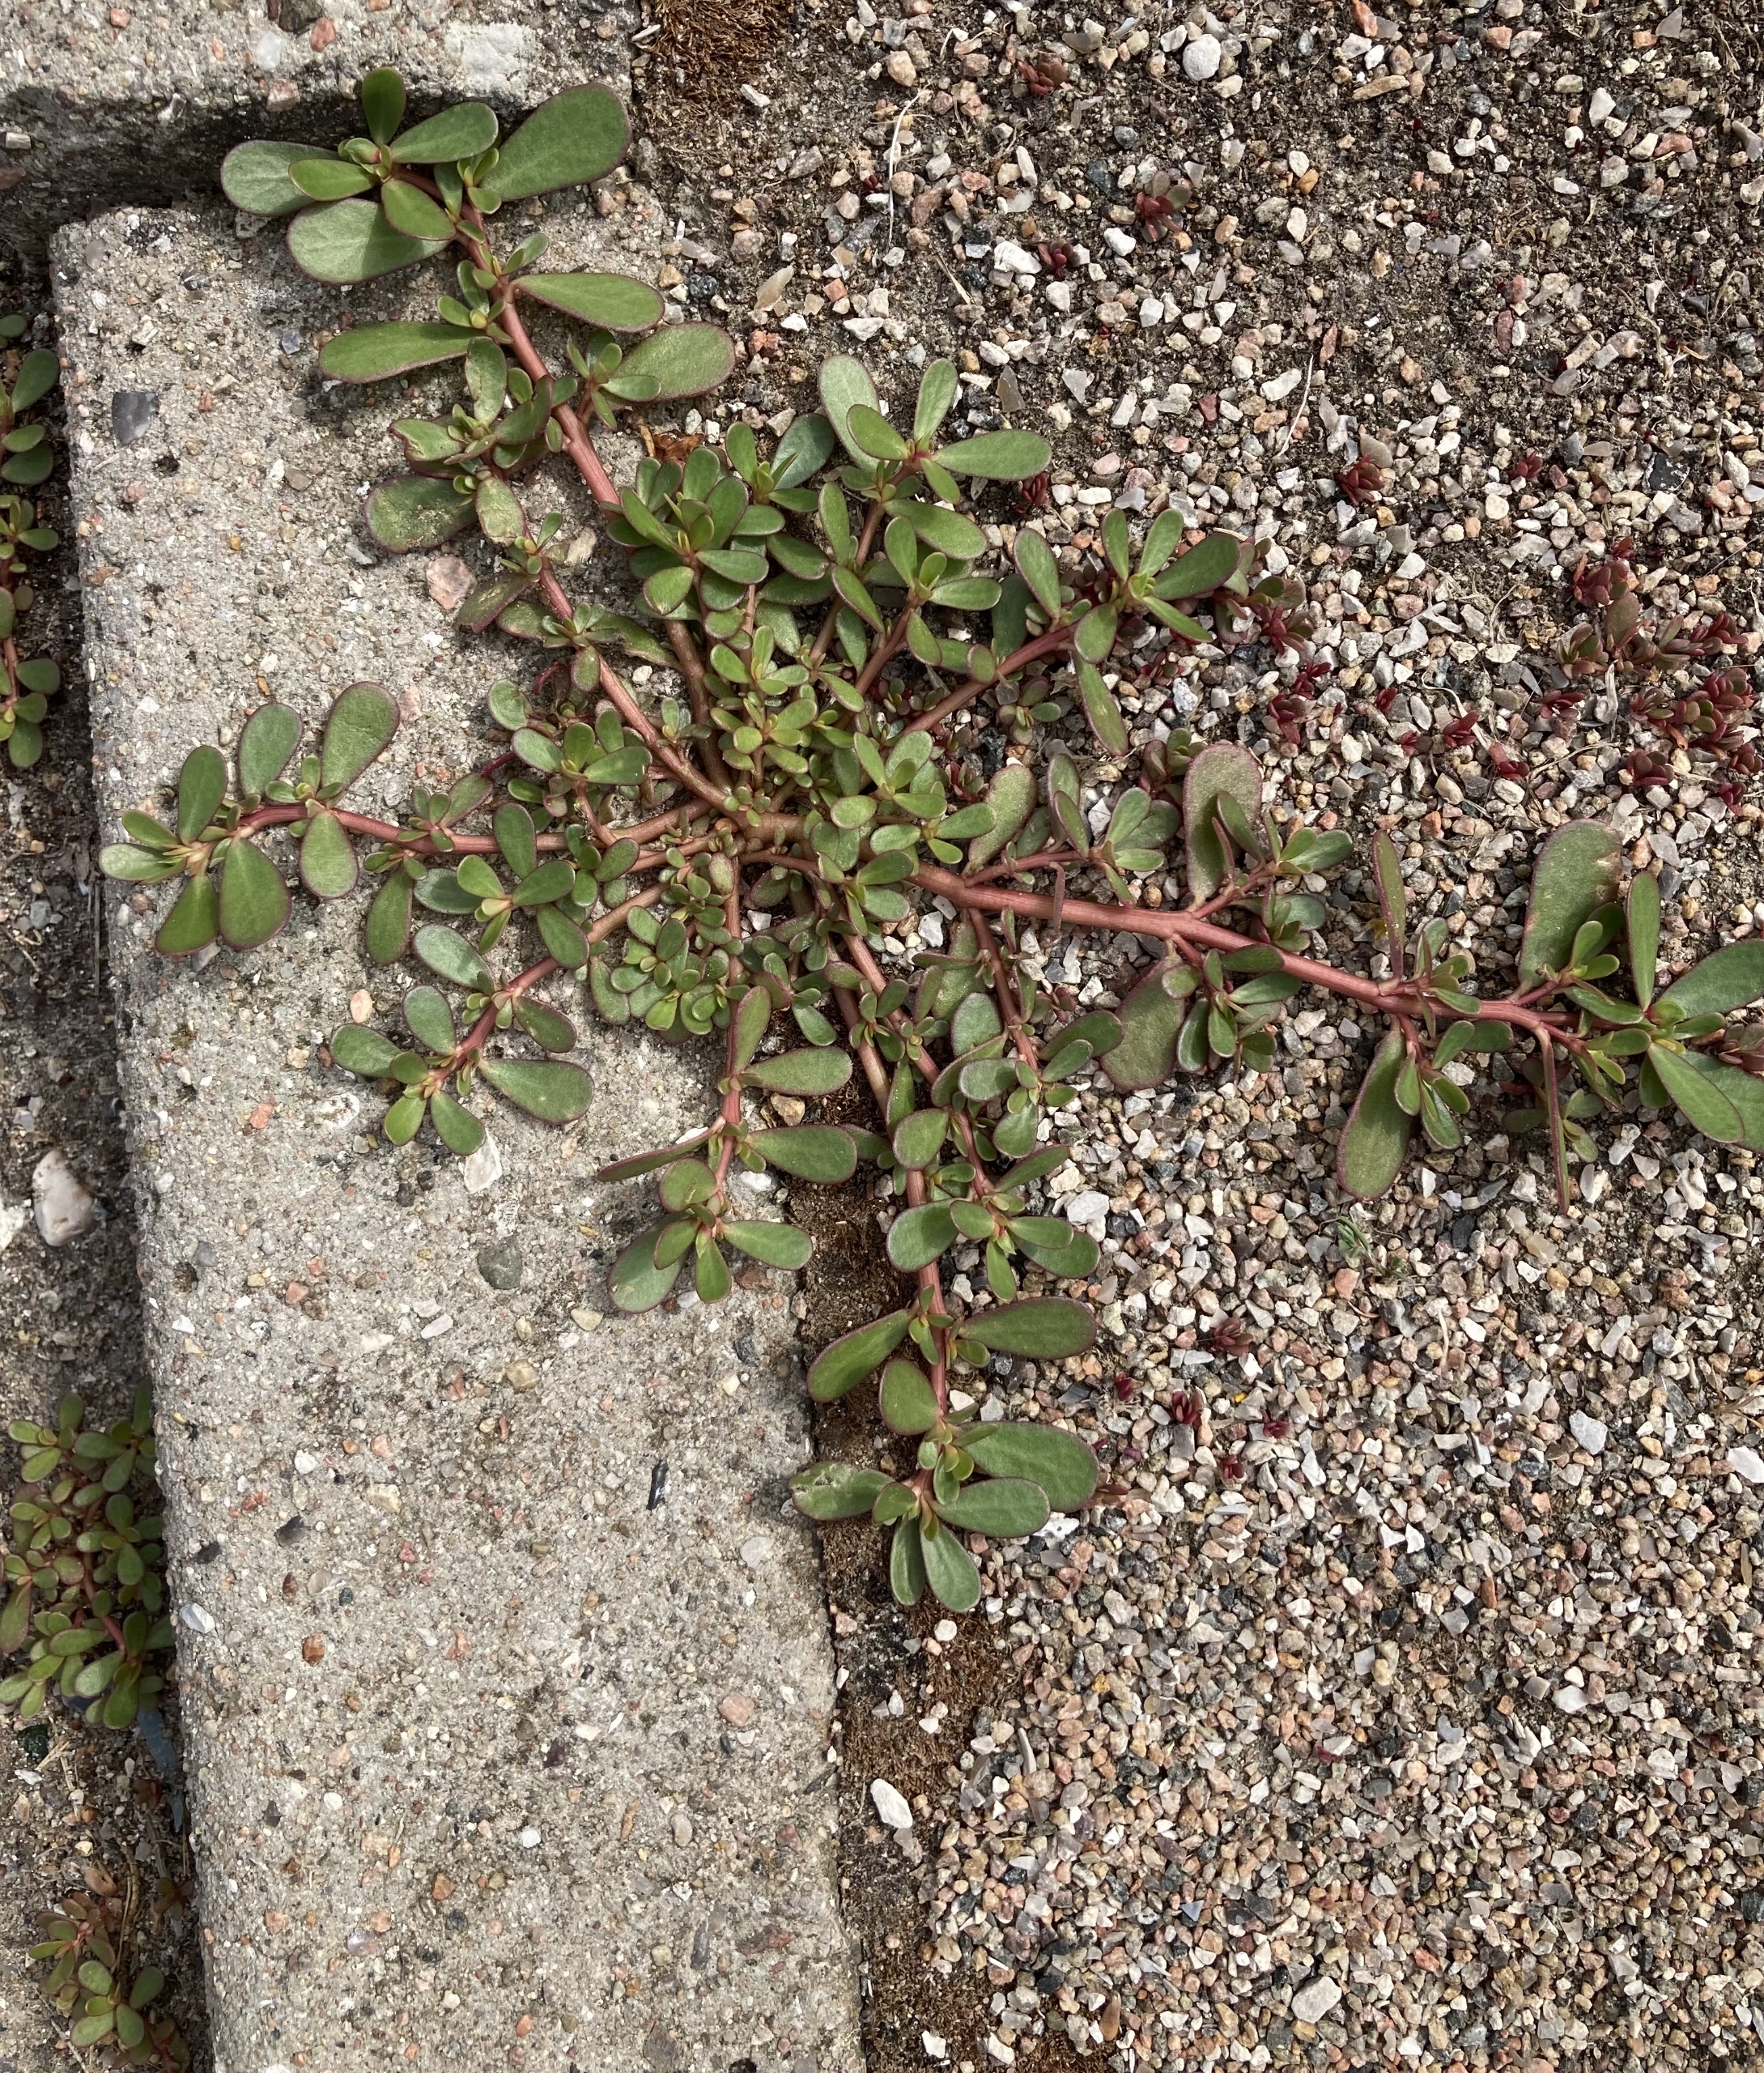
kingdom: Plantae
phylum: Tracheophyta
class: Magnoliopsida
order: Caryophyllales
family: Portulacaceae
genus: Portulaca
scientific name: Portulaca oleracea
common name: Portulak
